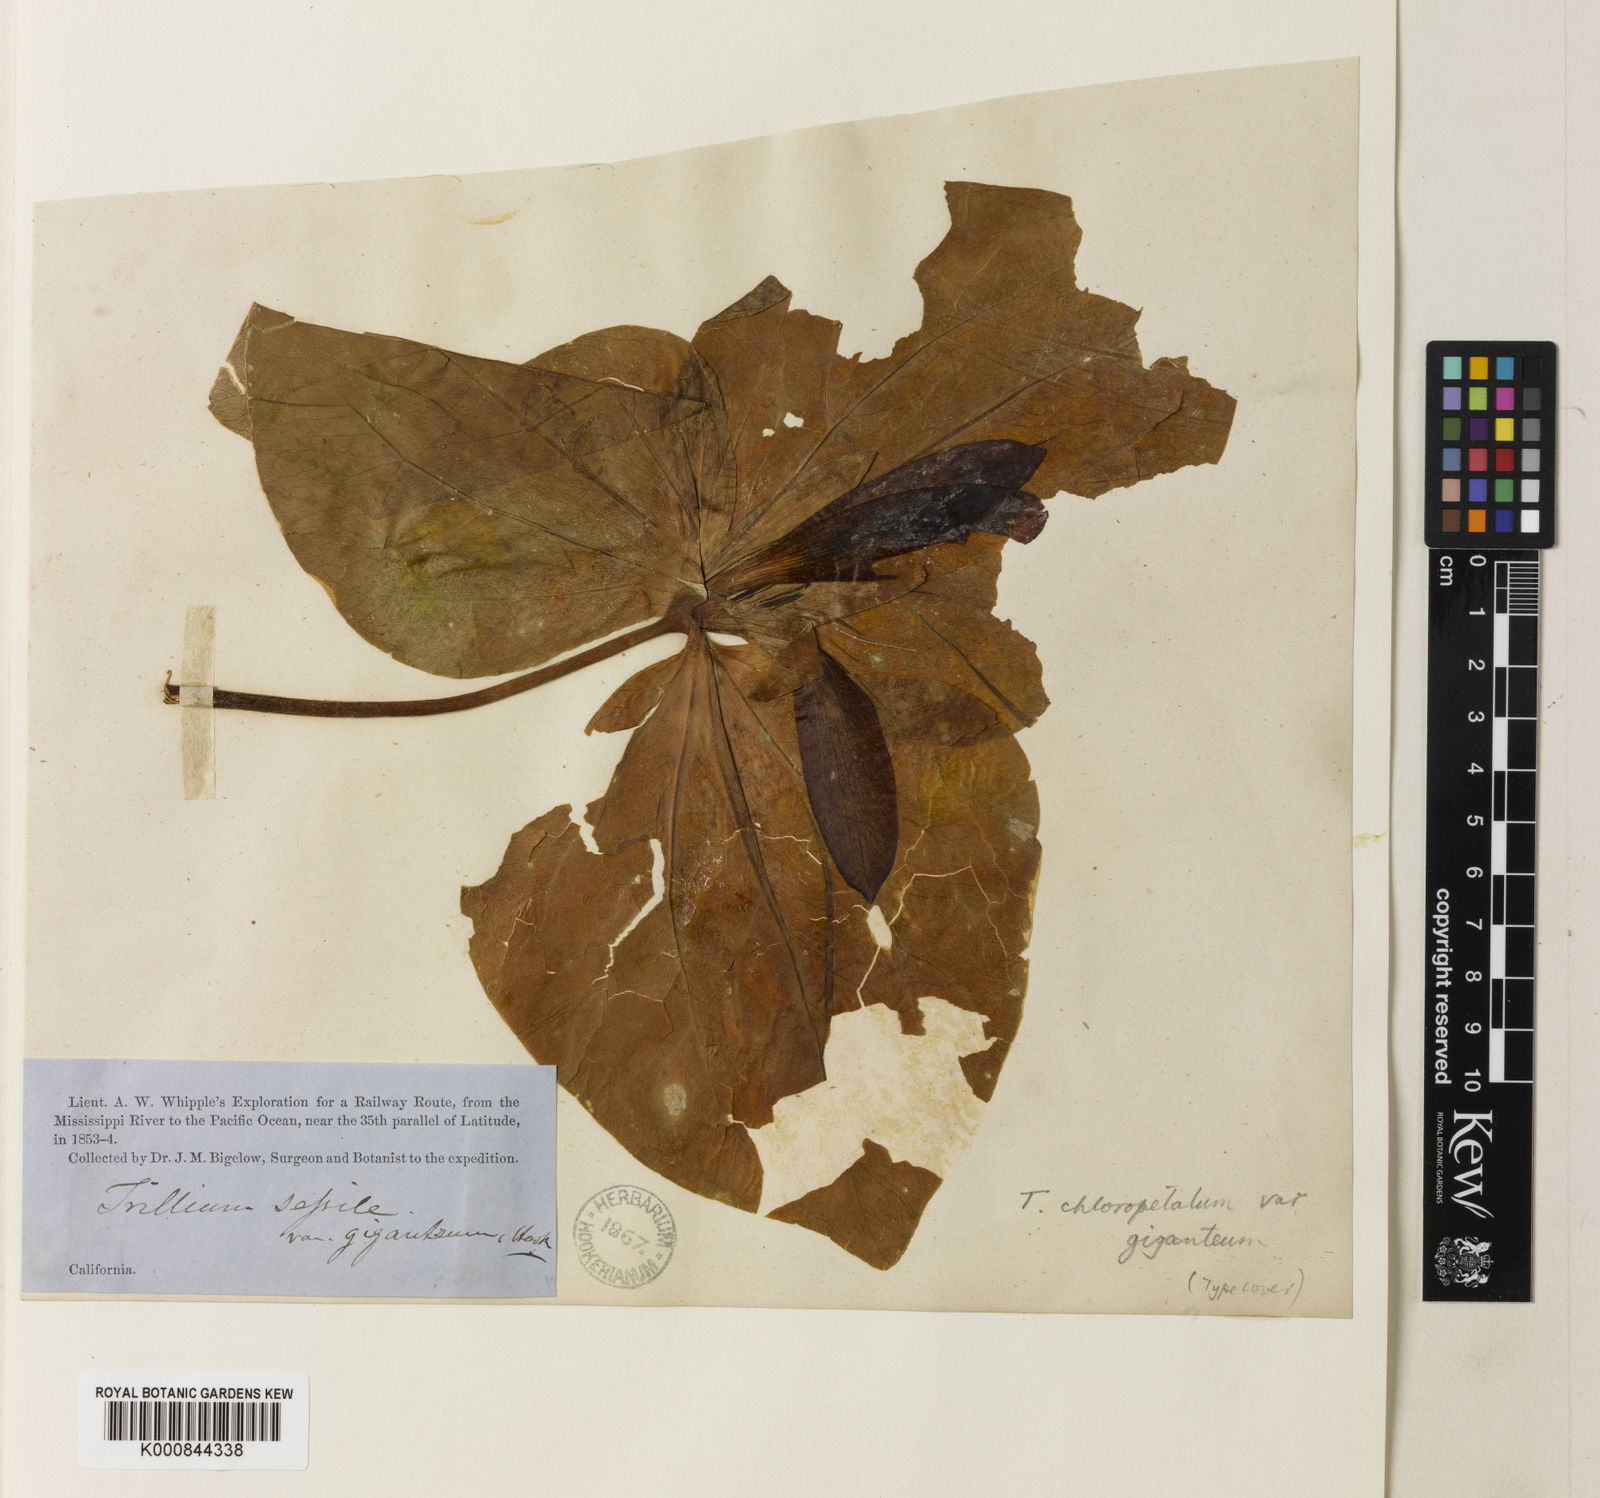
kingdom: Plantae
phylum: Tracheophyta
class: Liliopsida
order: Liliales
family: Melanthiaceae
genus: Trillium
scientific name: Trillium chloropetalum
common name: Giant trillium
